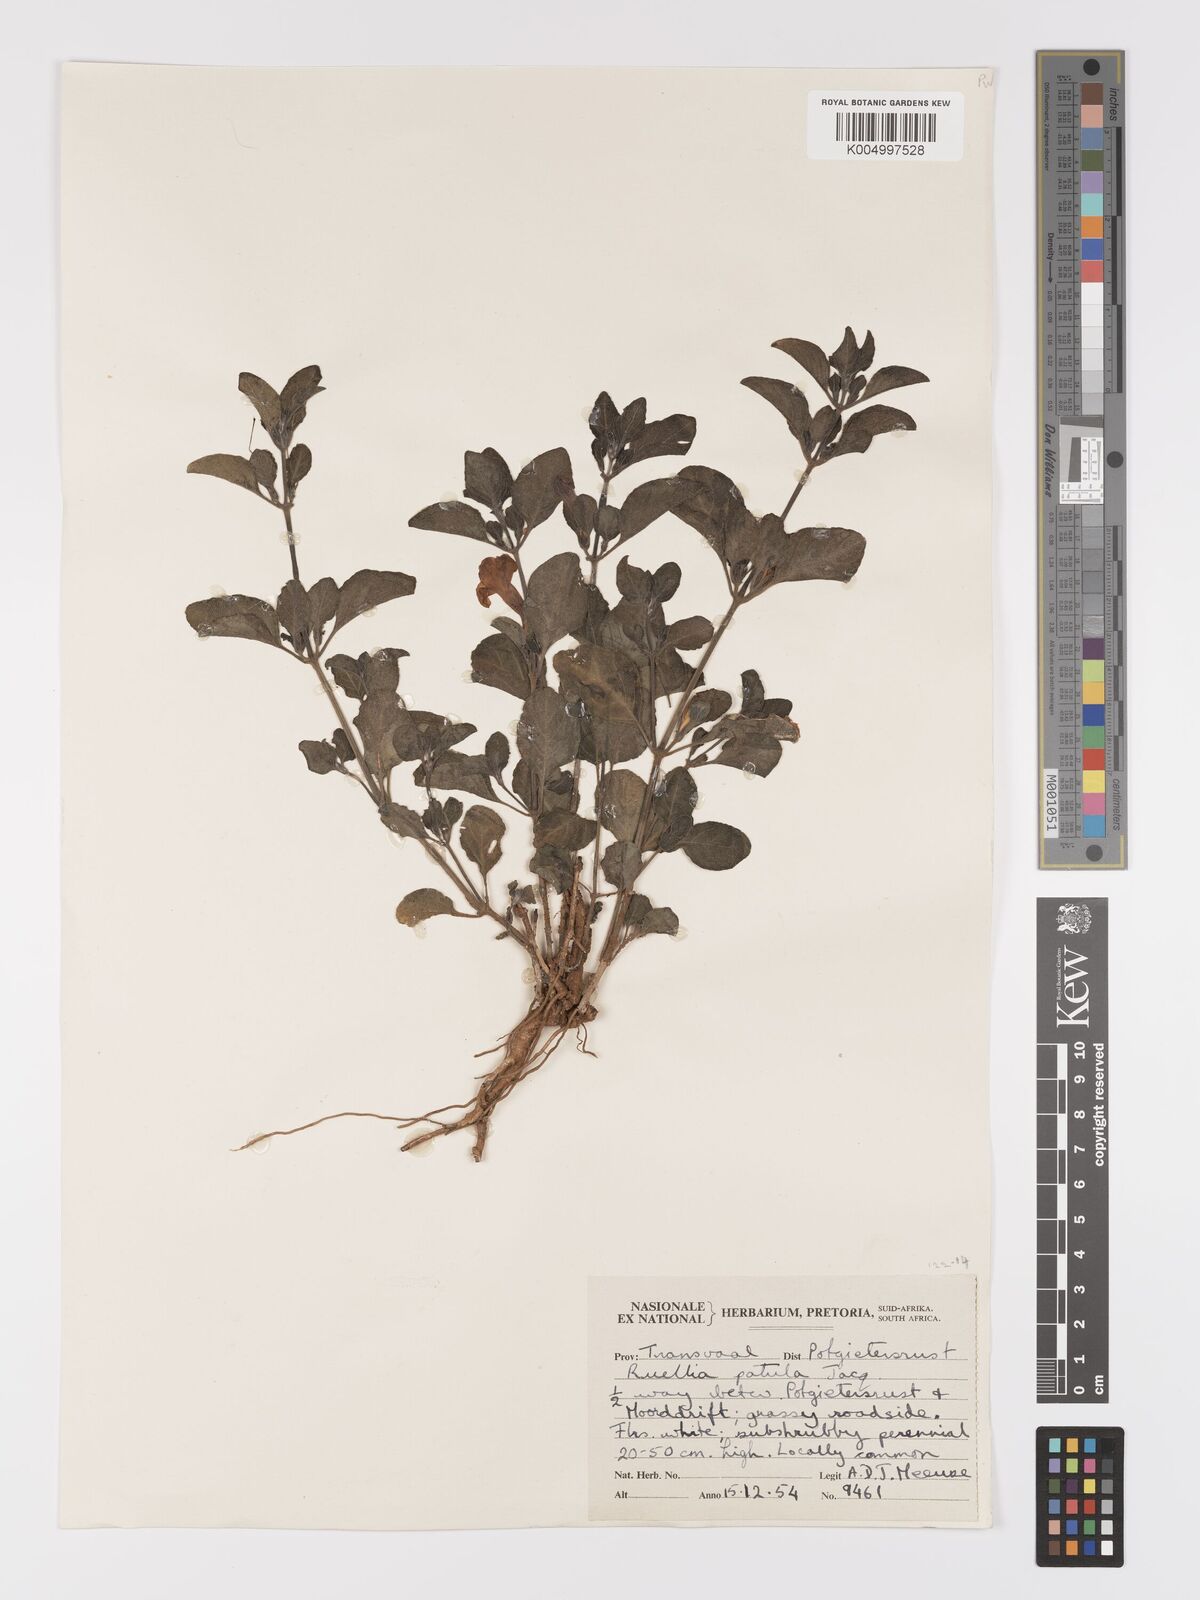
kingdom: Plantae
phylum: Tracheophyta
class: Magnoliopsida
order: Lamiales
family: Acanthaceae
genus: Ruellia
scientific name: Ruellia patula
